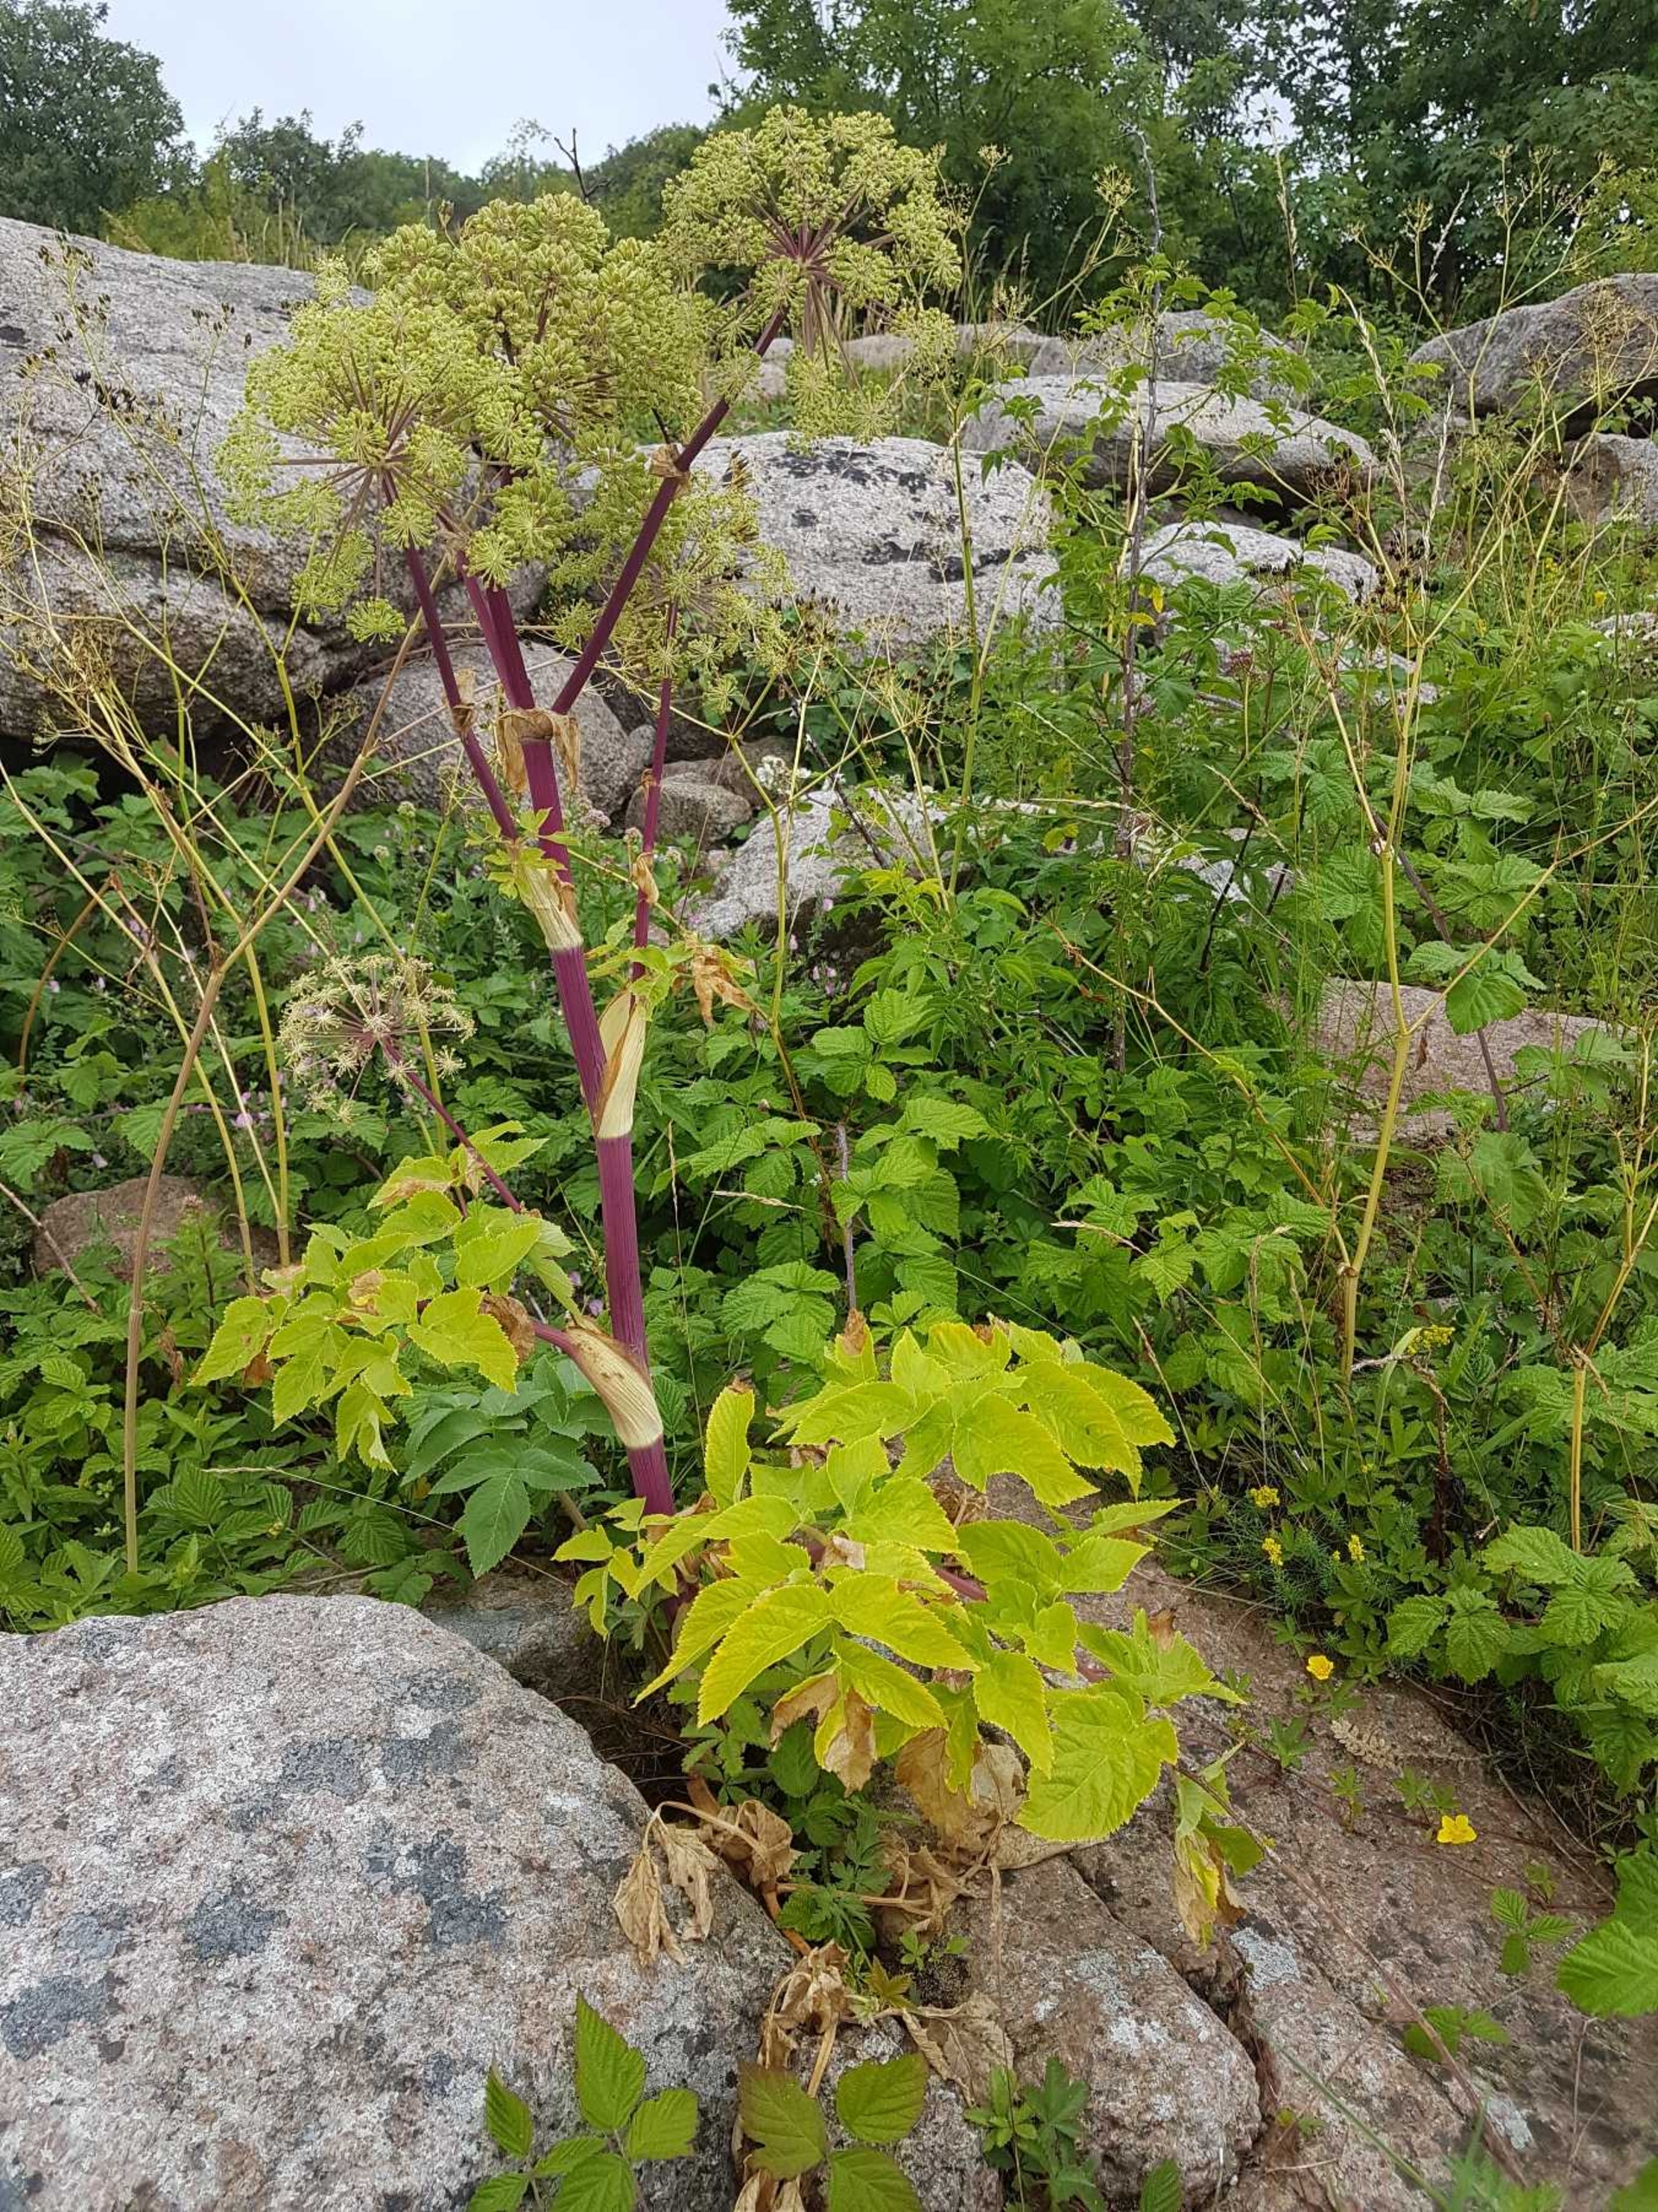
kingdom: Plantae
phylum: Tracheophyta
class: Magnoliopsida
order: Apiales
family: Apiaceae
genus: Angelica
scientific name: Angelica archangelica
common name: Kvan
